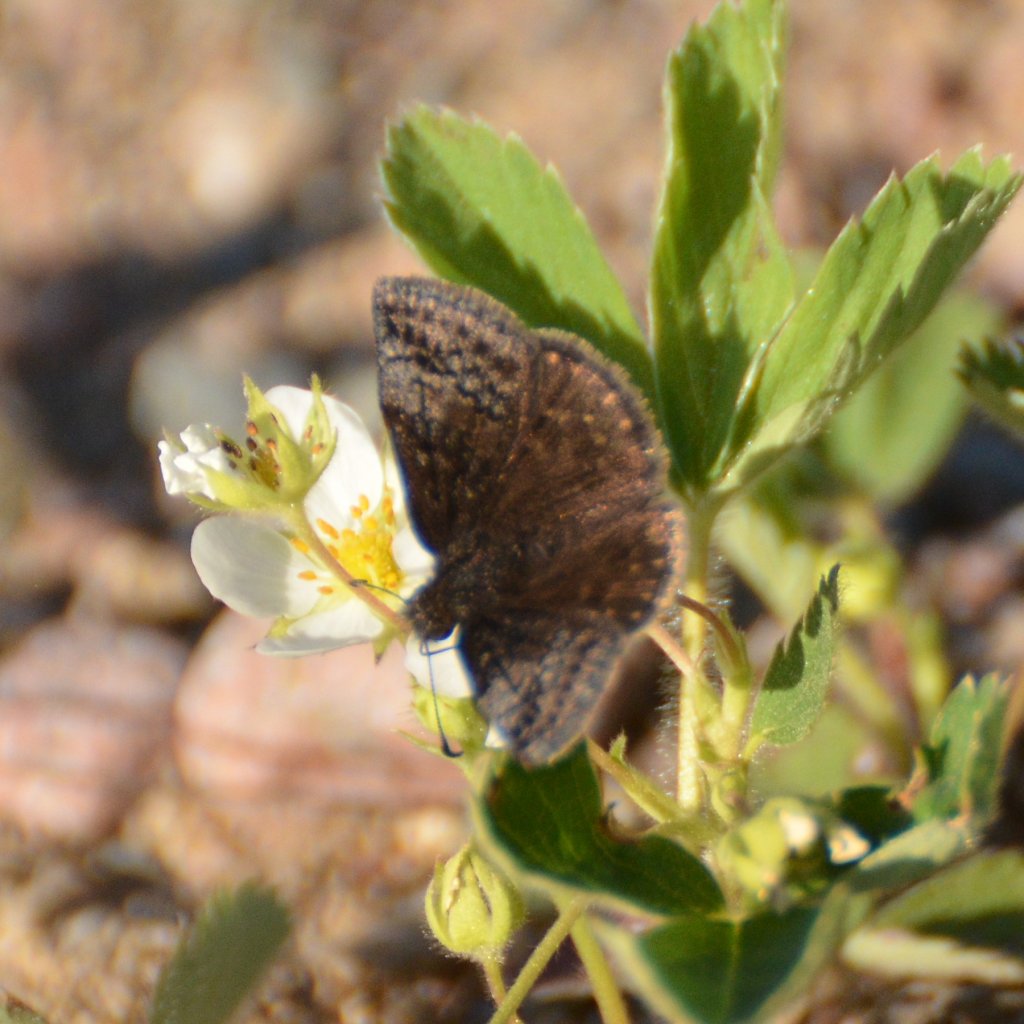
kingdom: Animalia
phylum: Arthropoda
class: Insecta
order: Lepidoptera
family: Hesperiidae
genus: Erynnis
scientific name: Erynnis icelus
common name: Dreamy Duskywing
